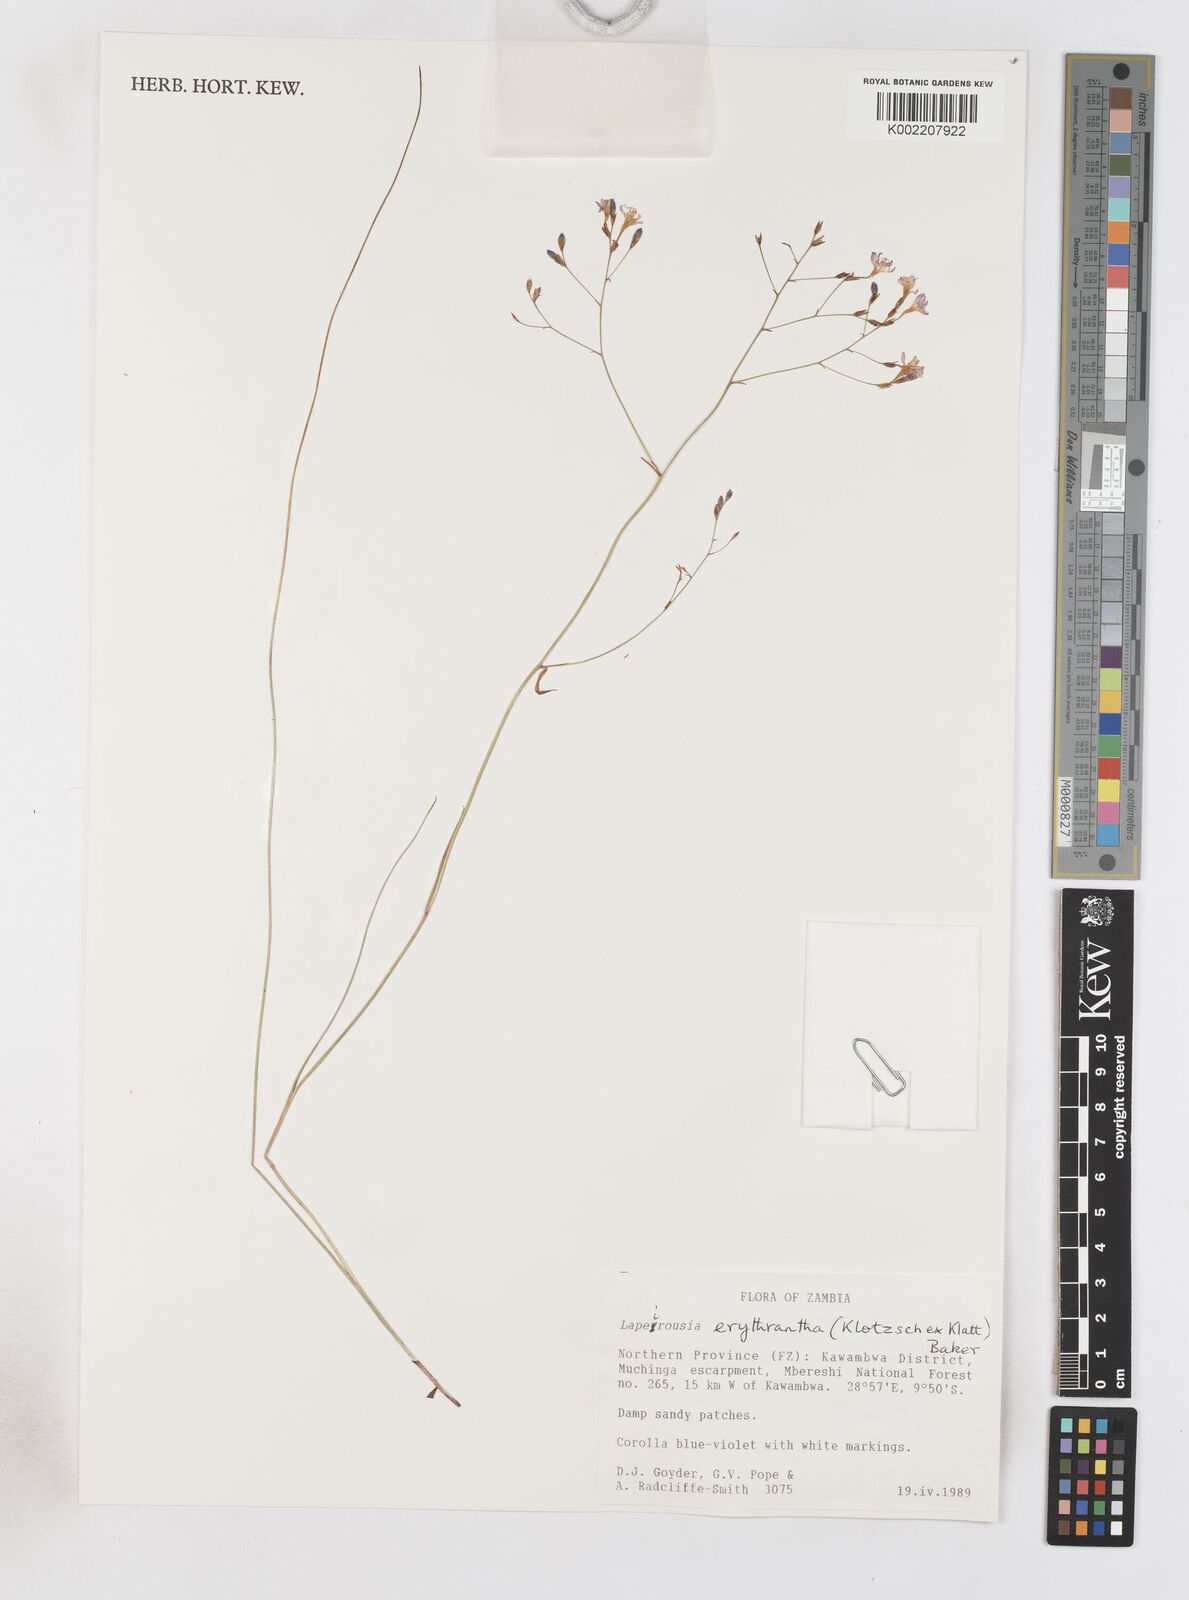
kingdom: Plantae
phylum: Tracheophyta
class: Liliopsida
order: Asparagales
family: Iridaceae
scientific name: Iridaceae
